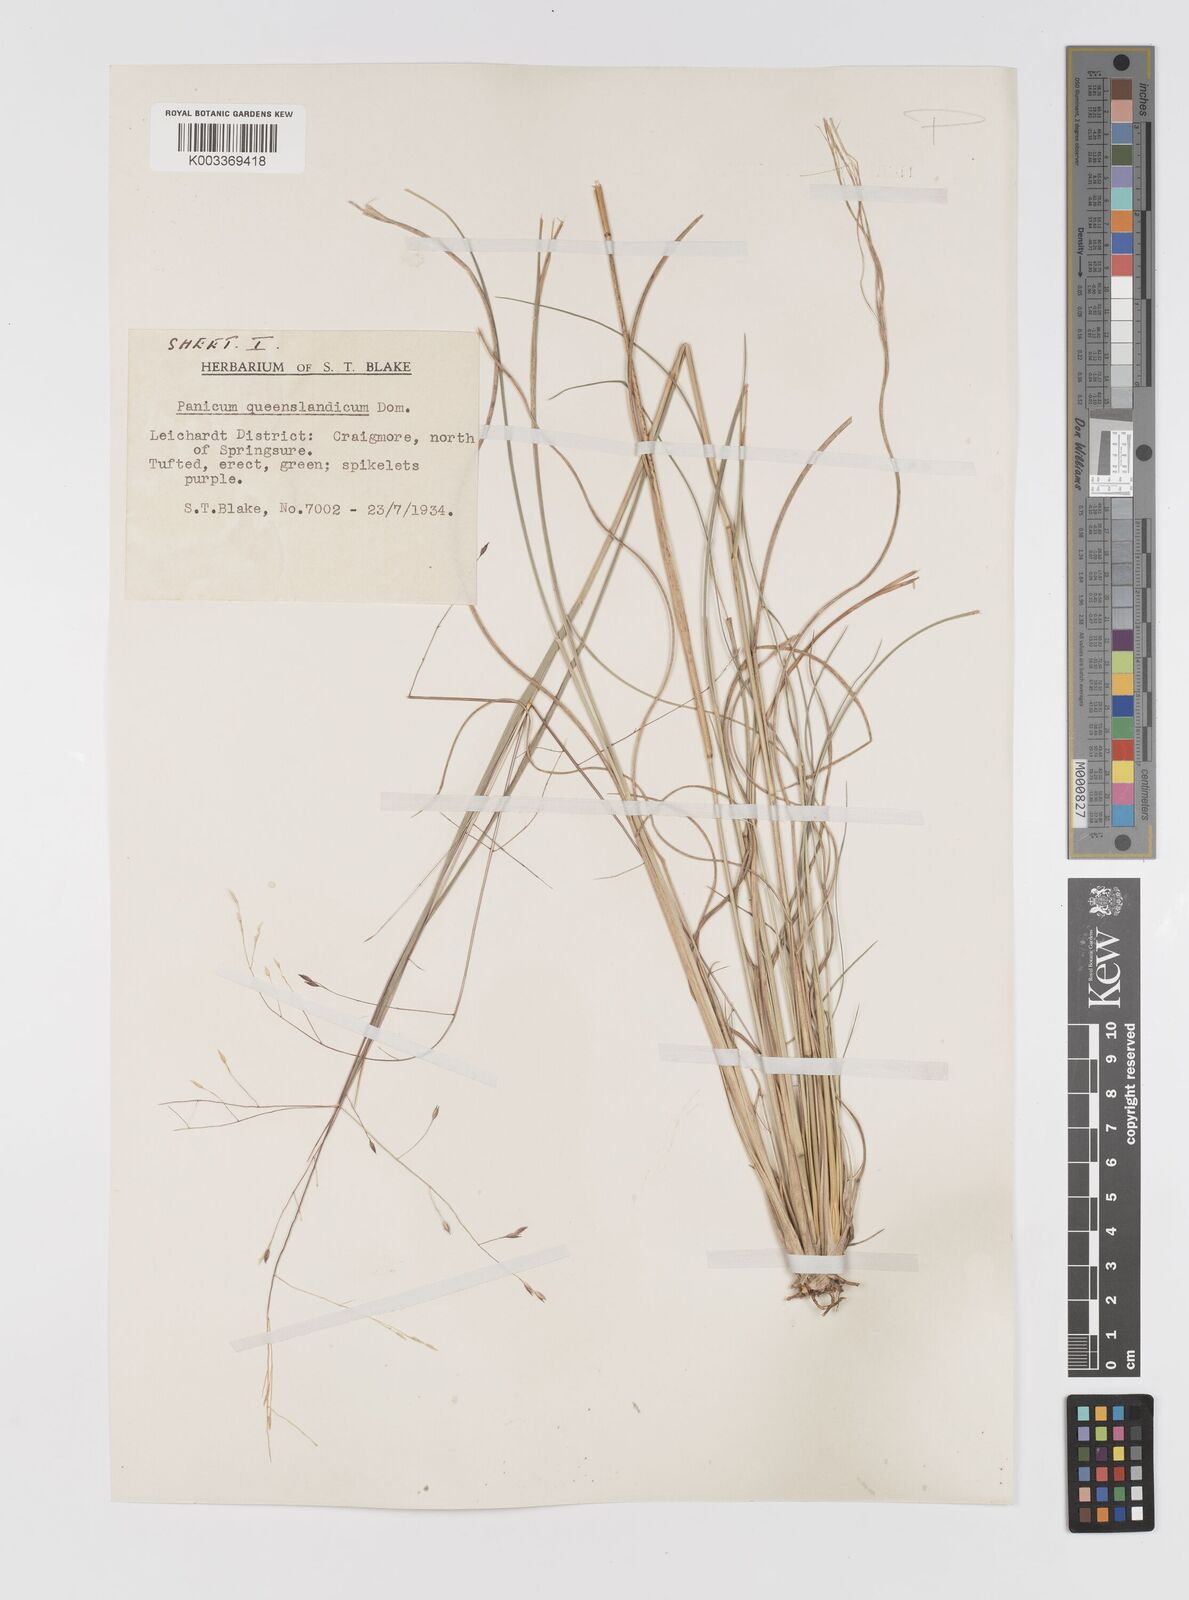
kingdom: Plantae
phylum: Tracheophyta
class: Liliopsida
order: Poales
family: Poaceae
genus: Panicum
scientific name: Panicum queenslandicum
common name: Yabila grass
